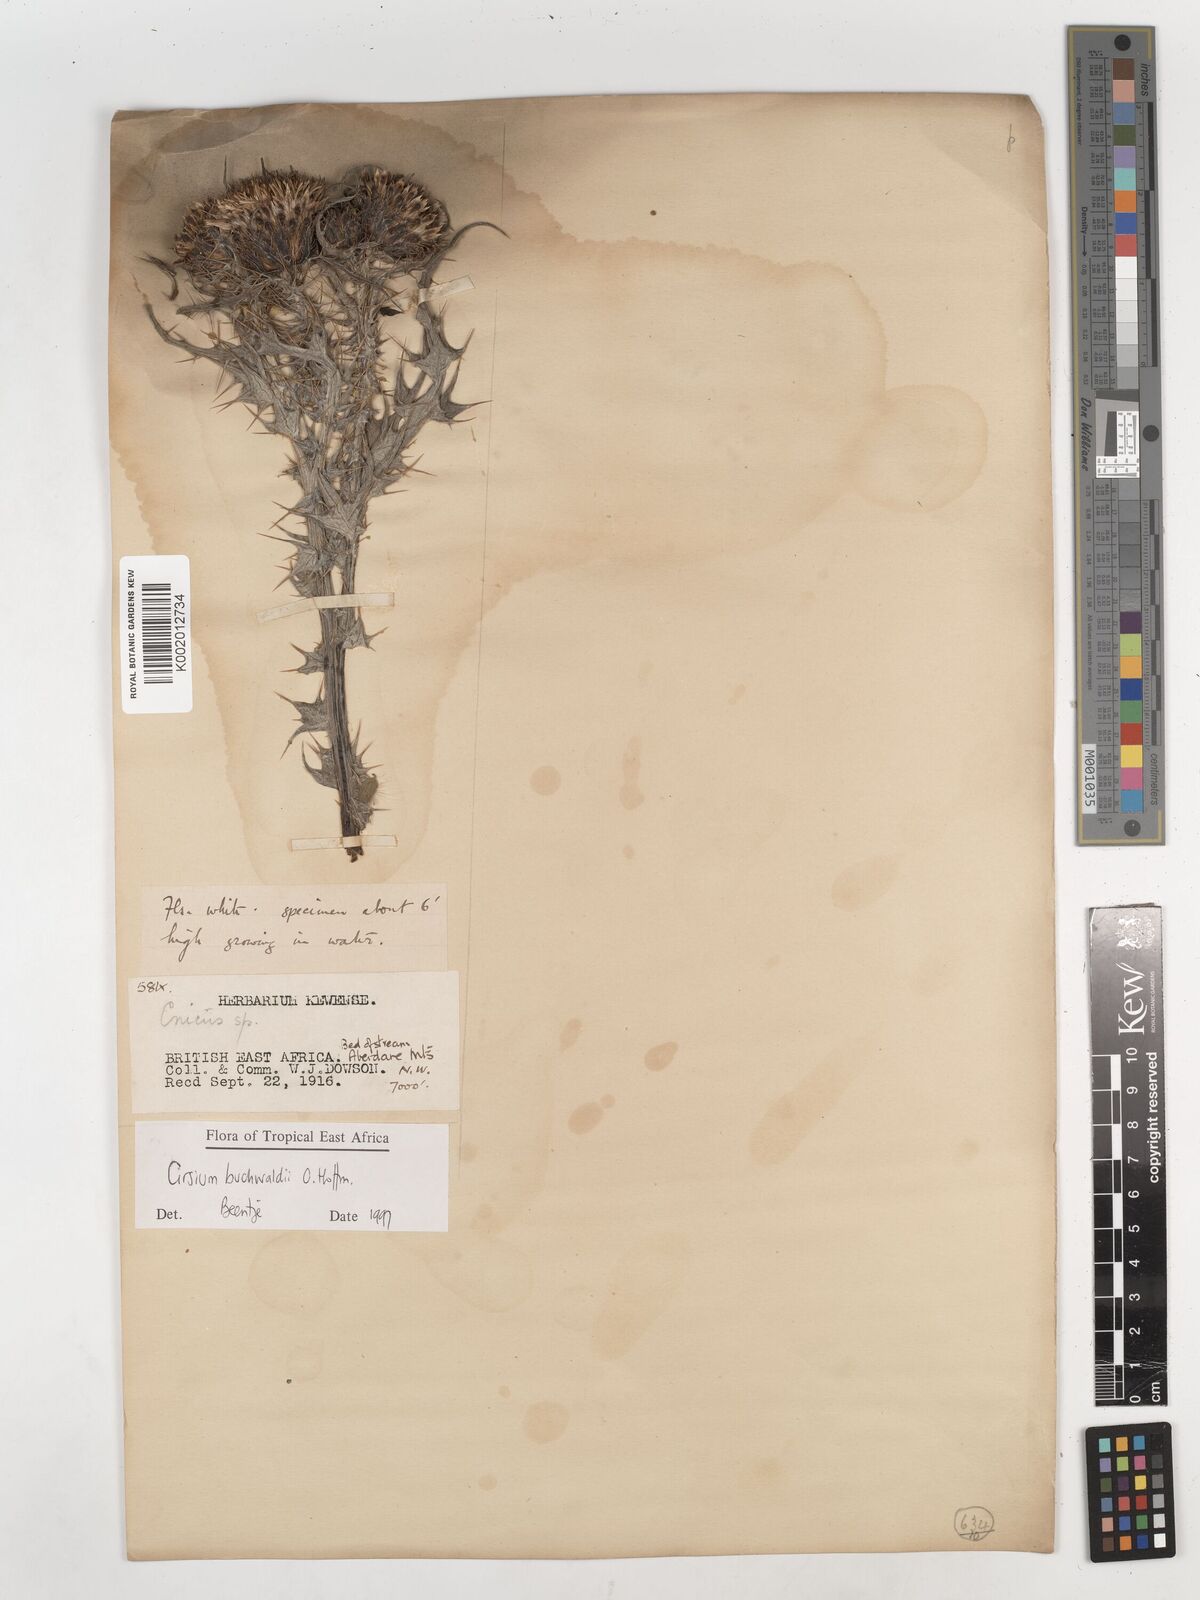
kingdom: Plantae
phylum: Tracheophyta
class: Magnoliopsida
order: Asterales
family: Asteraceae
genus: Cirsium
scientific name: Cirsium buchwaldii
